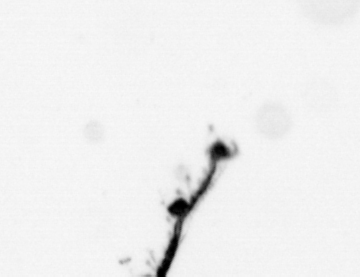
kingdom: Animalia
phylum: Cnidaria
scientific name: Cnidaria
